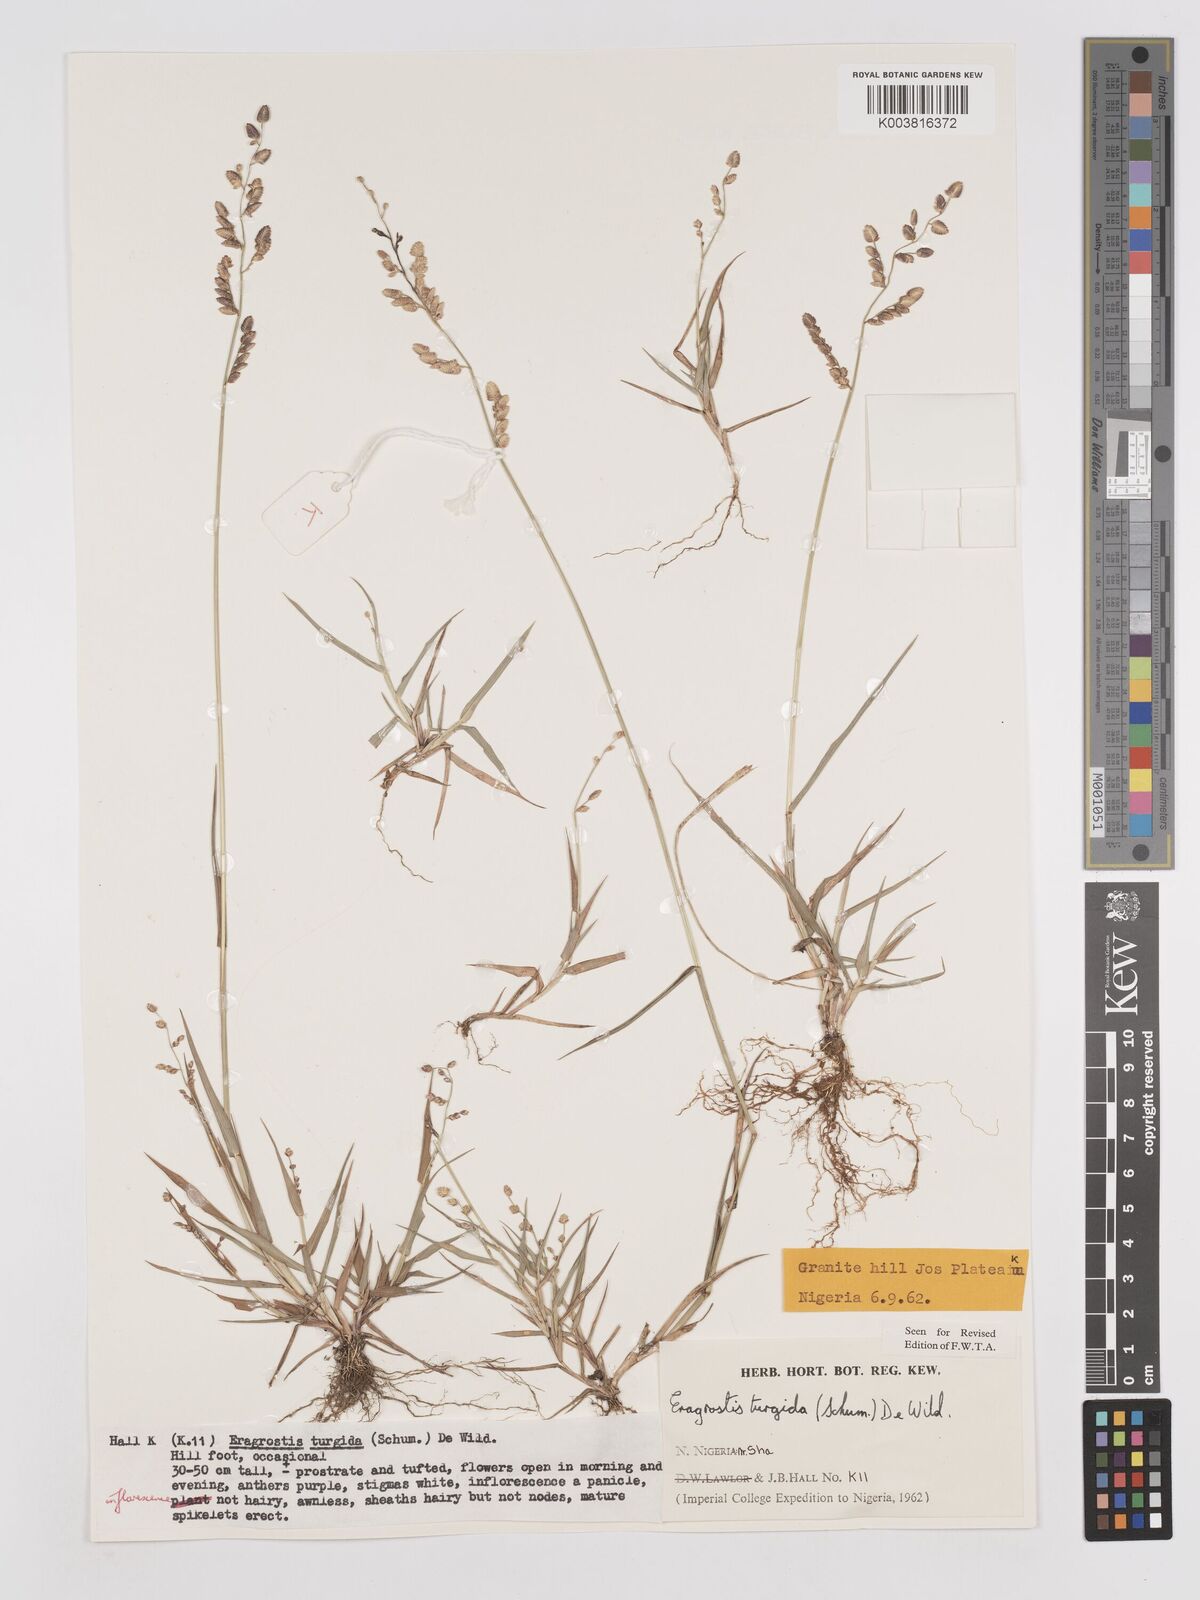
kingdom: Plantae
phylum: Tracheophyta
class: Liliopsida
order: Poales
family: Poaceae
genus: Eragrostis
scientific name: Eragrostis turgida
